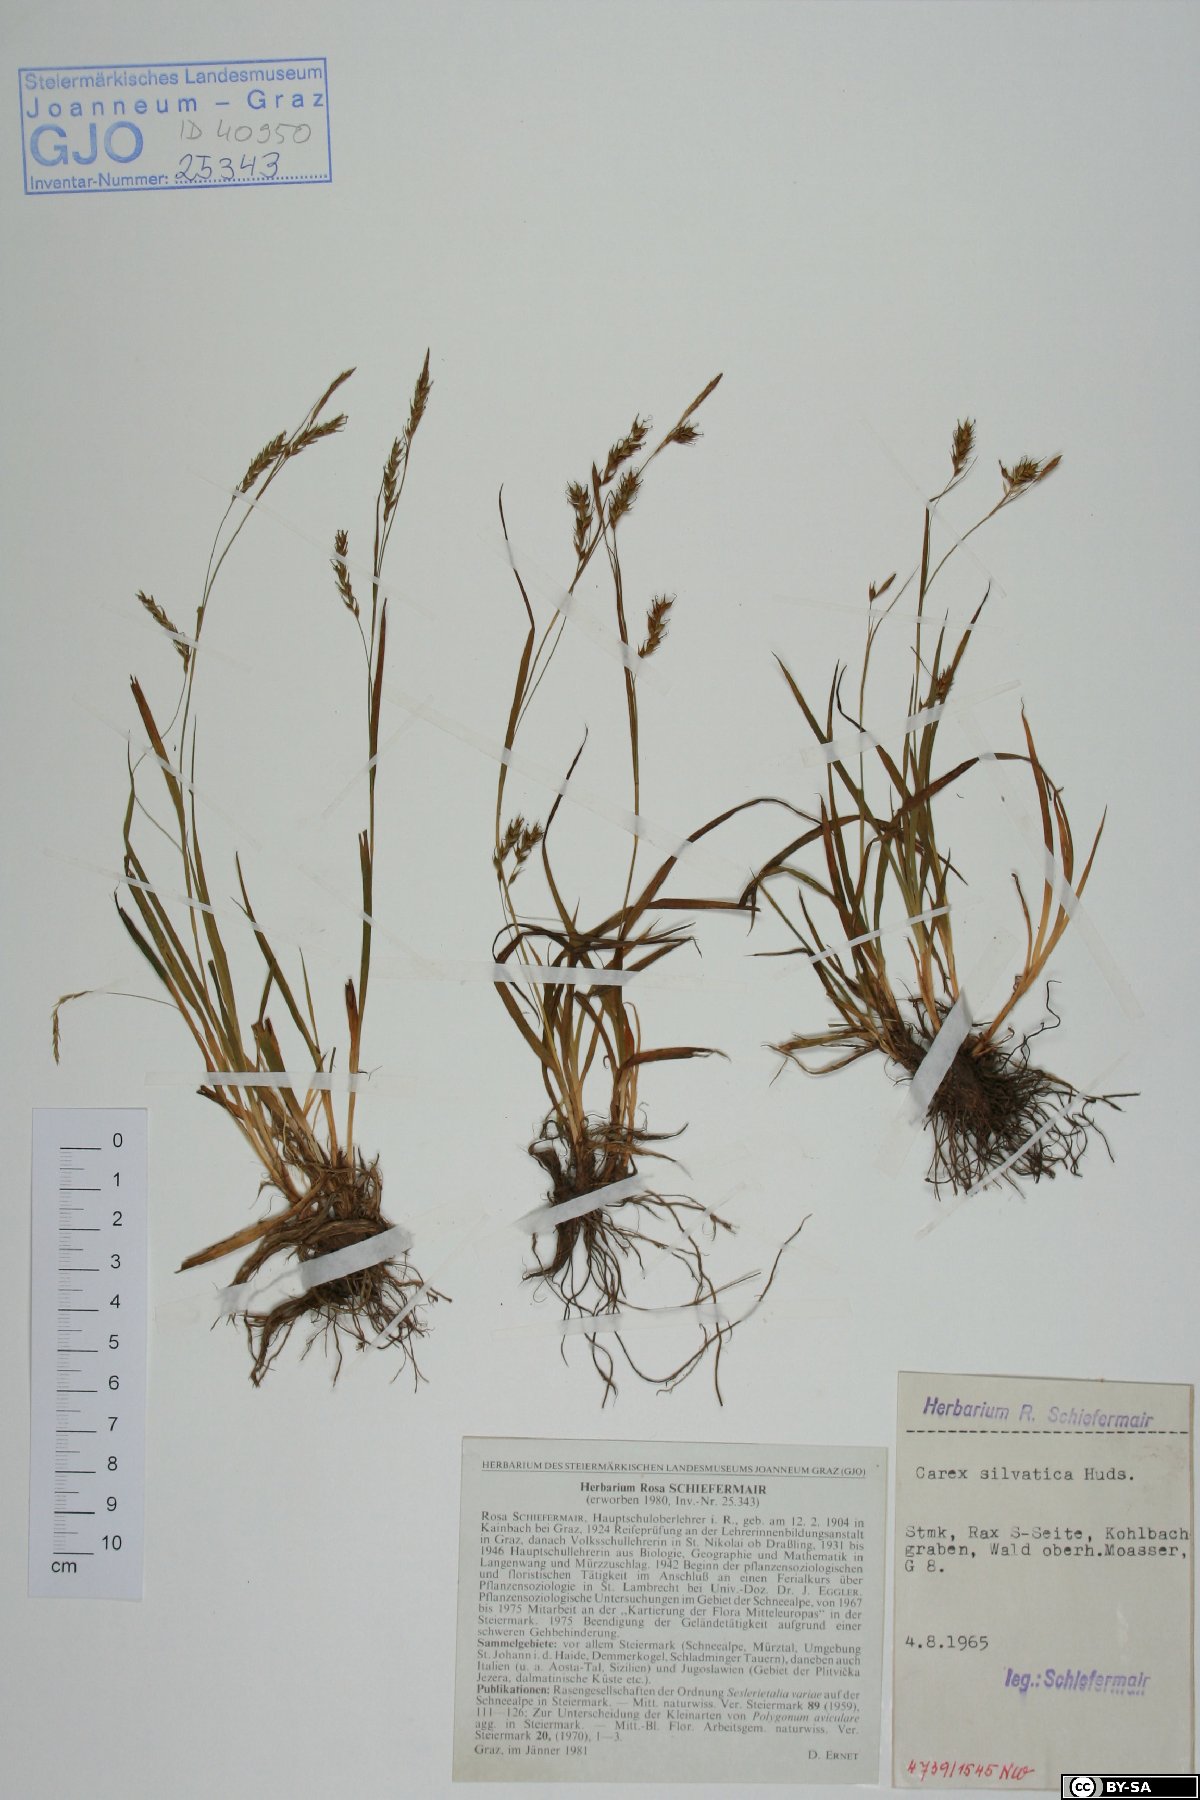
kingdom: Plantae
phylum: Tracheophyta
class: Liliopsida
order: Poales
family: Cyperaceae
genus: Carex
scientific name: Carex sylvatica
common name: Wood-sedge
